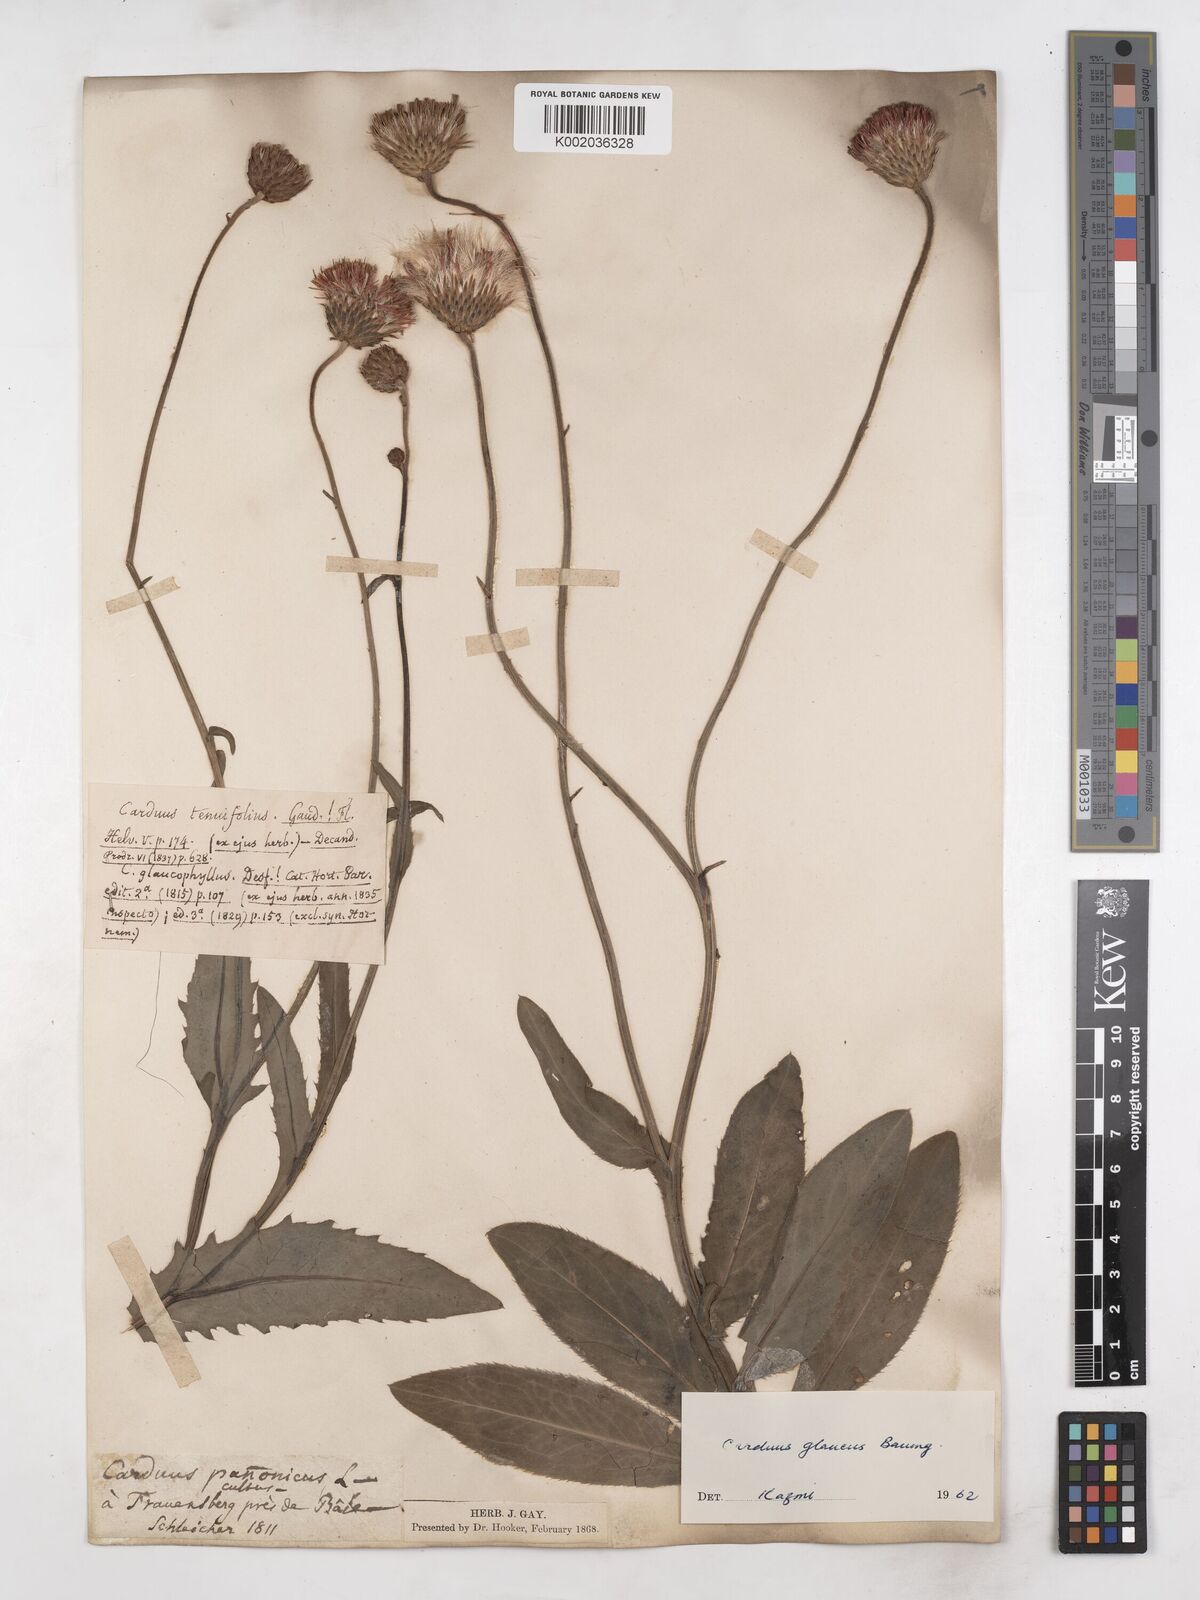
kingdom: Plantae
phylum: Tracheophyta
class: Magnoliopsida
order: Asterales
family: Asteraceae
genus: Carduus
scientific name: Carduus defloratus
